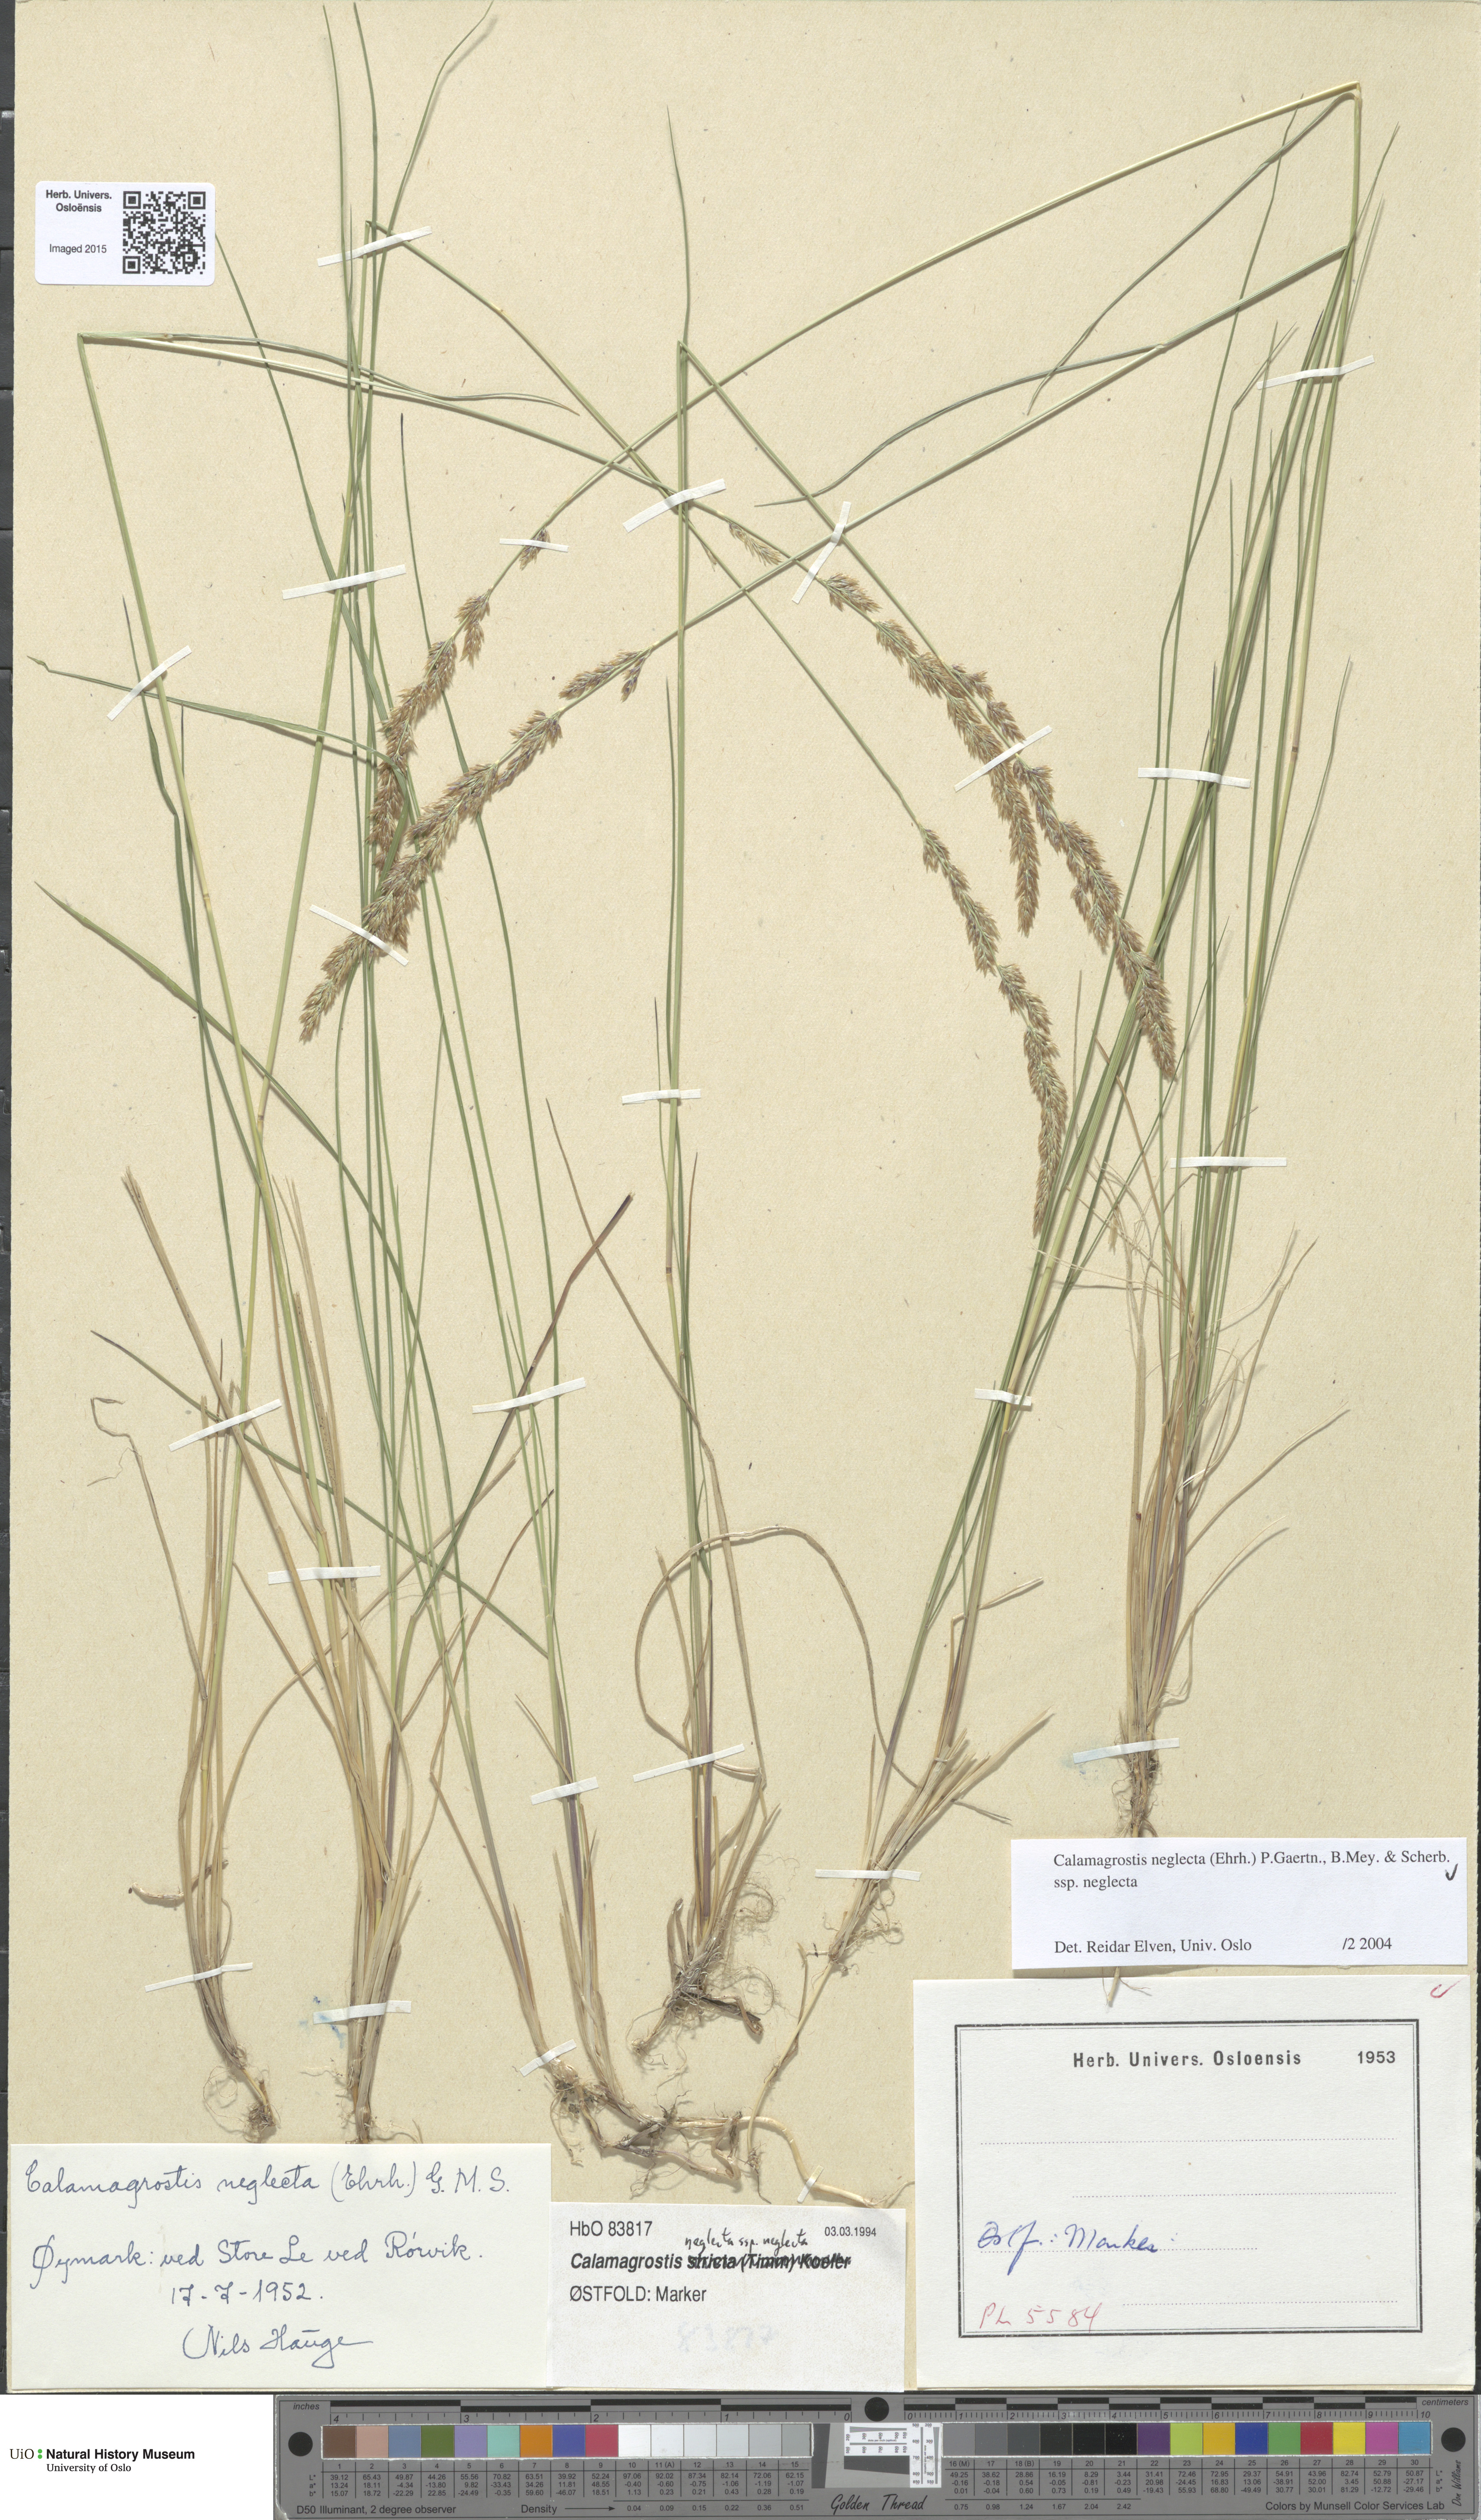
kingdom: Plantae
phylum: Tracheophyta
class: Liliopsida
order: Poales
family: Poaceae
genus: Achnatherum
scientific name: Achnatherum calamagrostis
